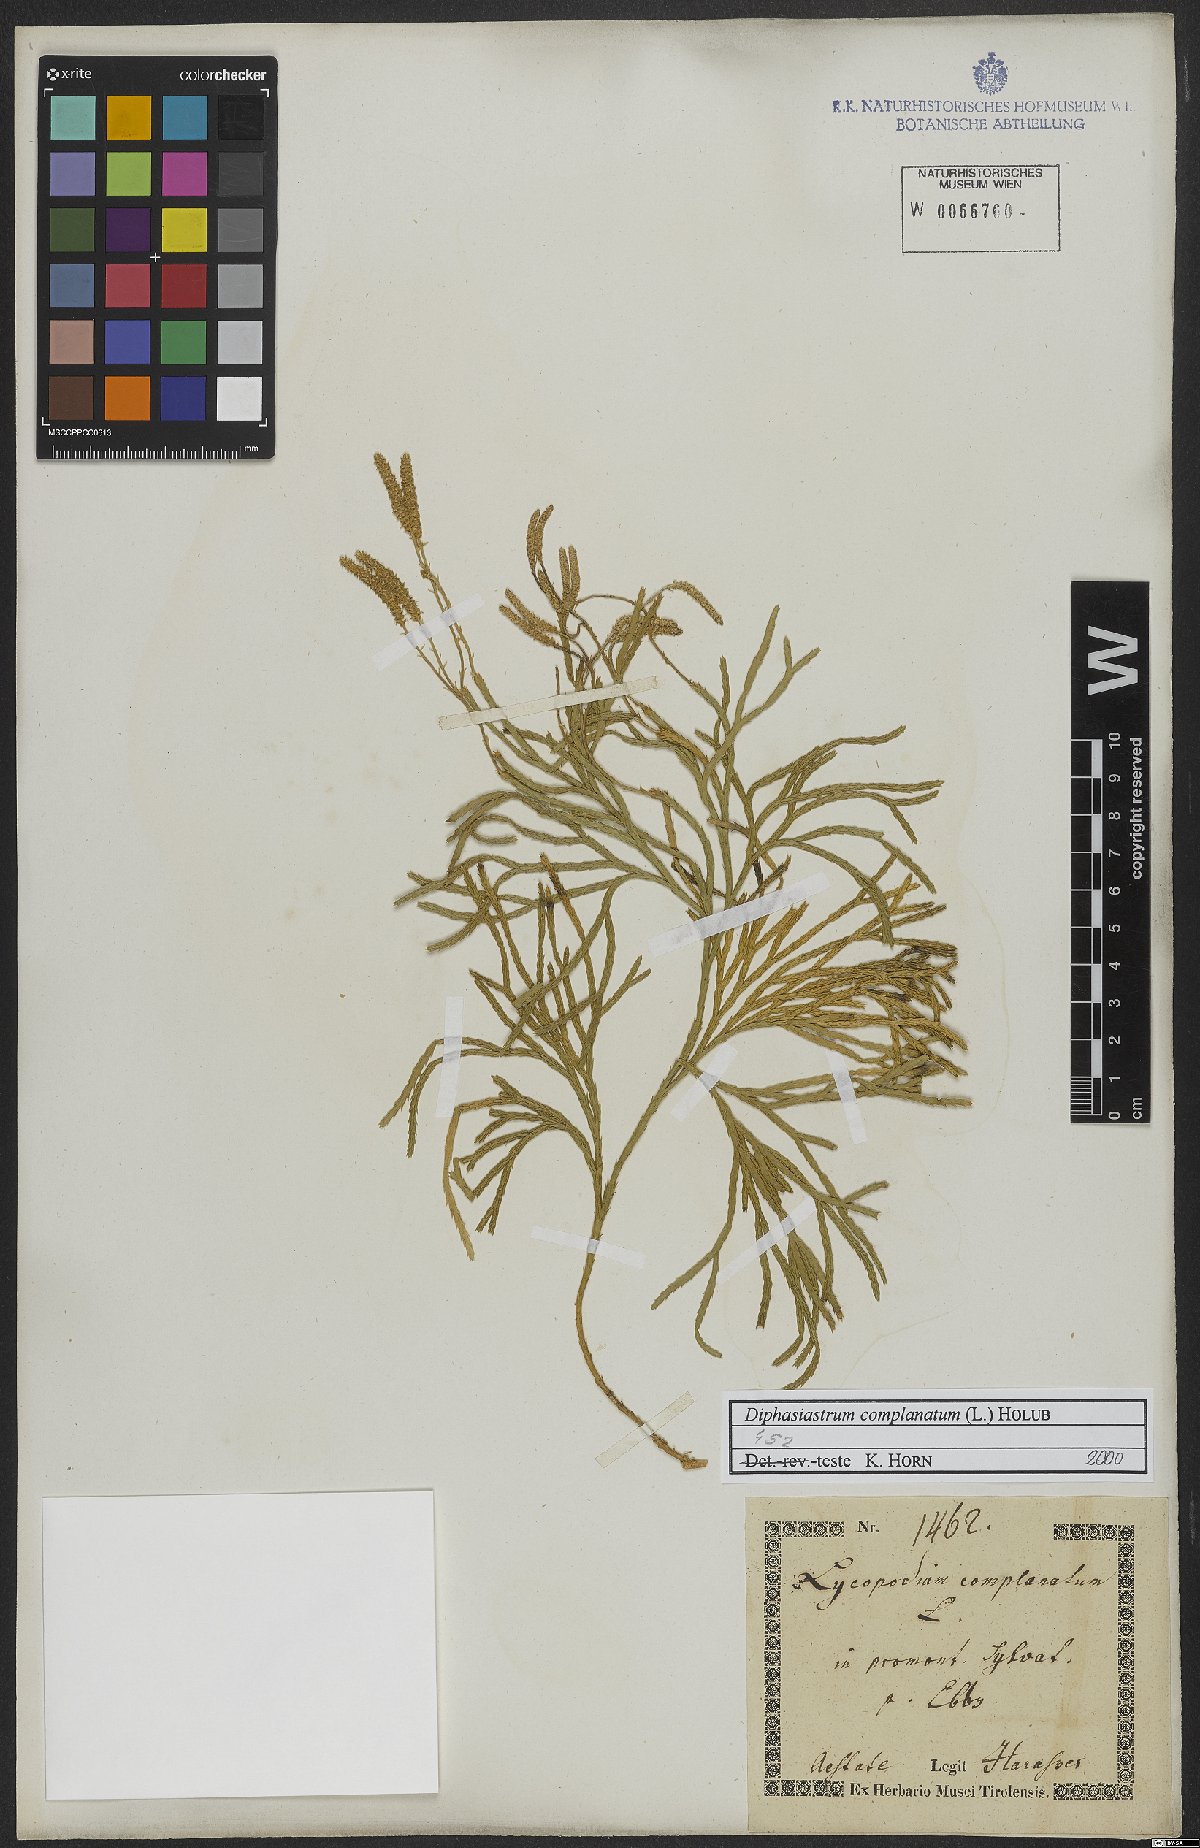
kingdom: Plantae
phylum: Tracheophyta
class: Lycopodiopsida
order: Lycopodiales
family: Lycopodiaceae
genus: Diphasiastrum
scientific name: Diphasiastrum complanatum
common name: Northern running-pine
